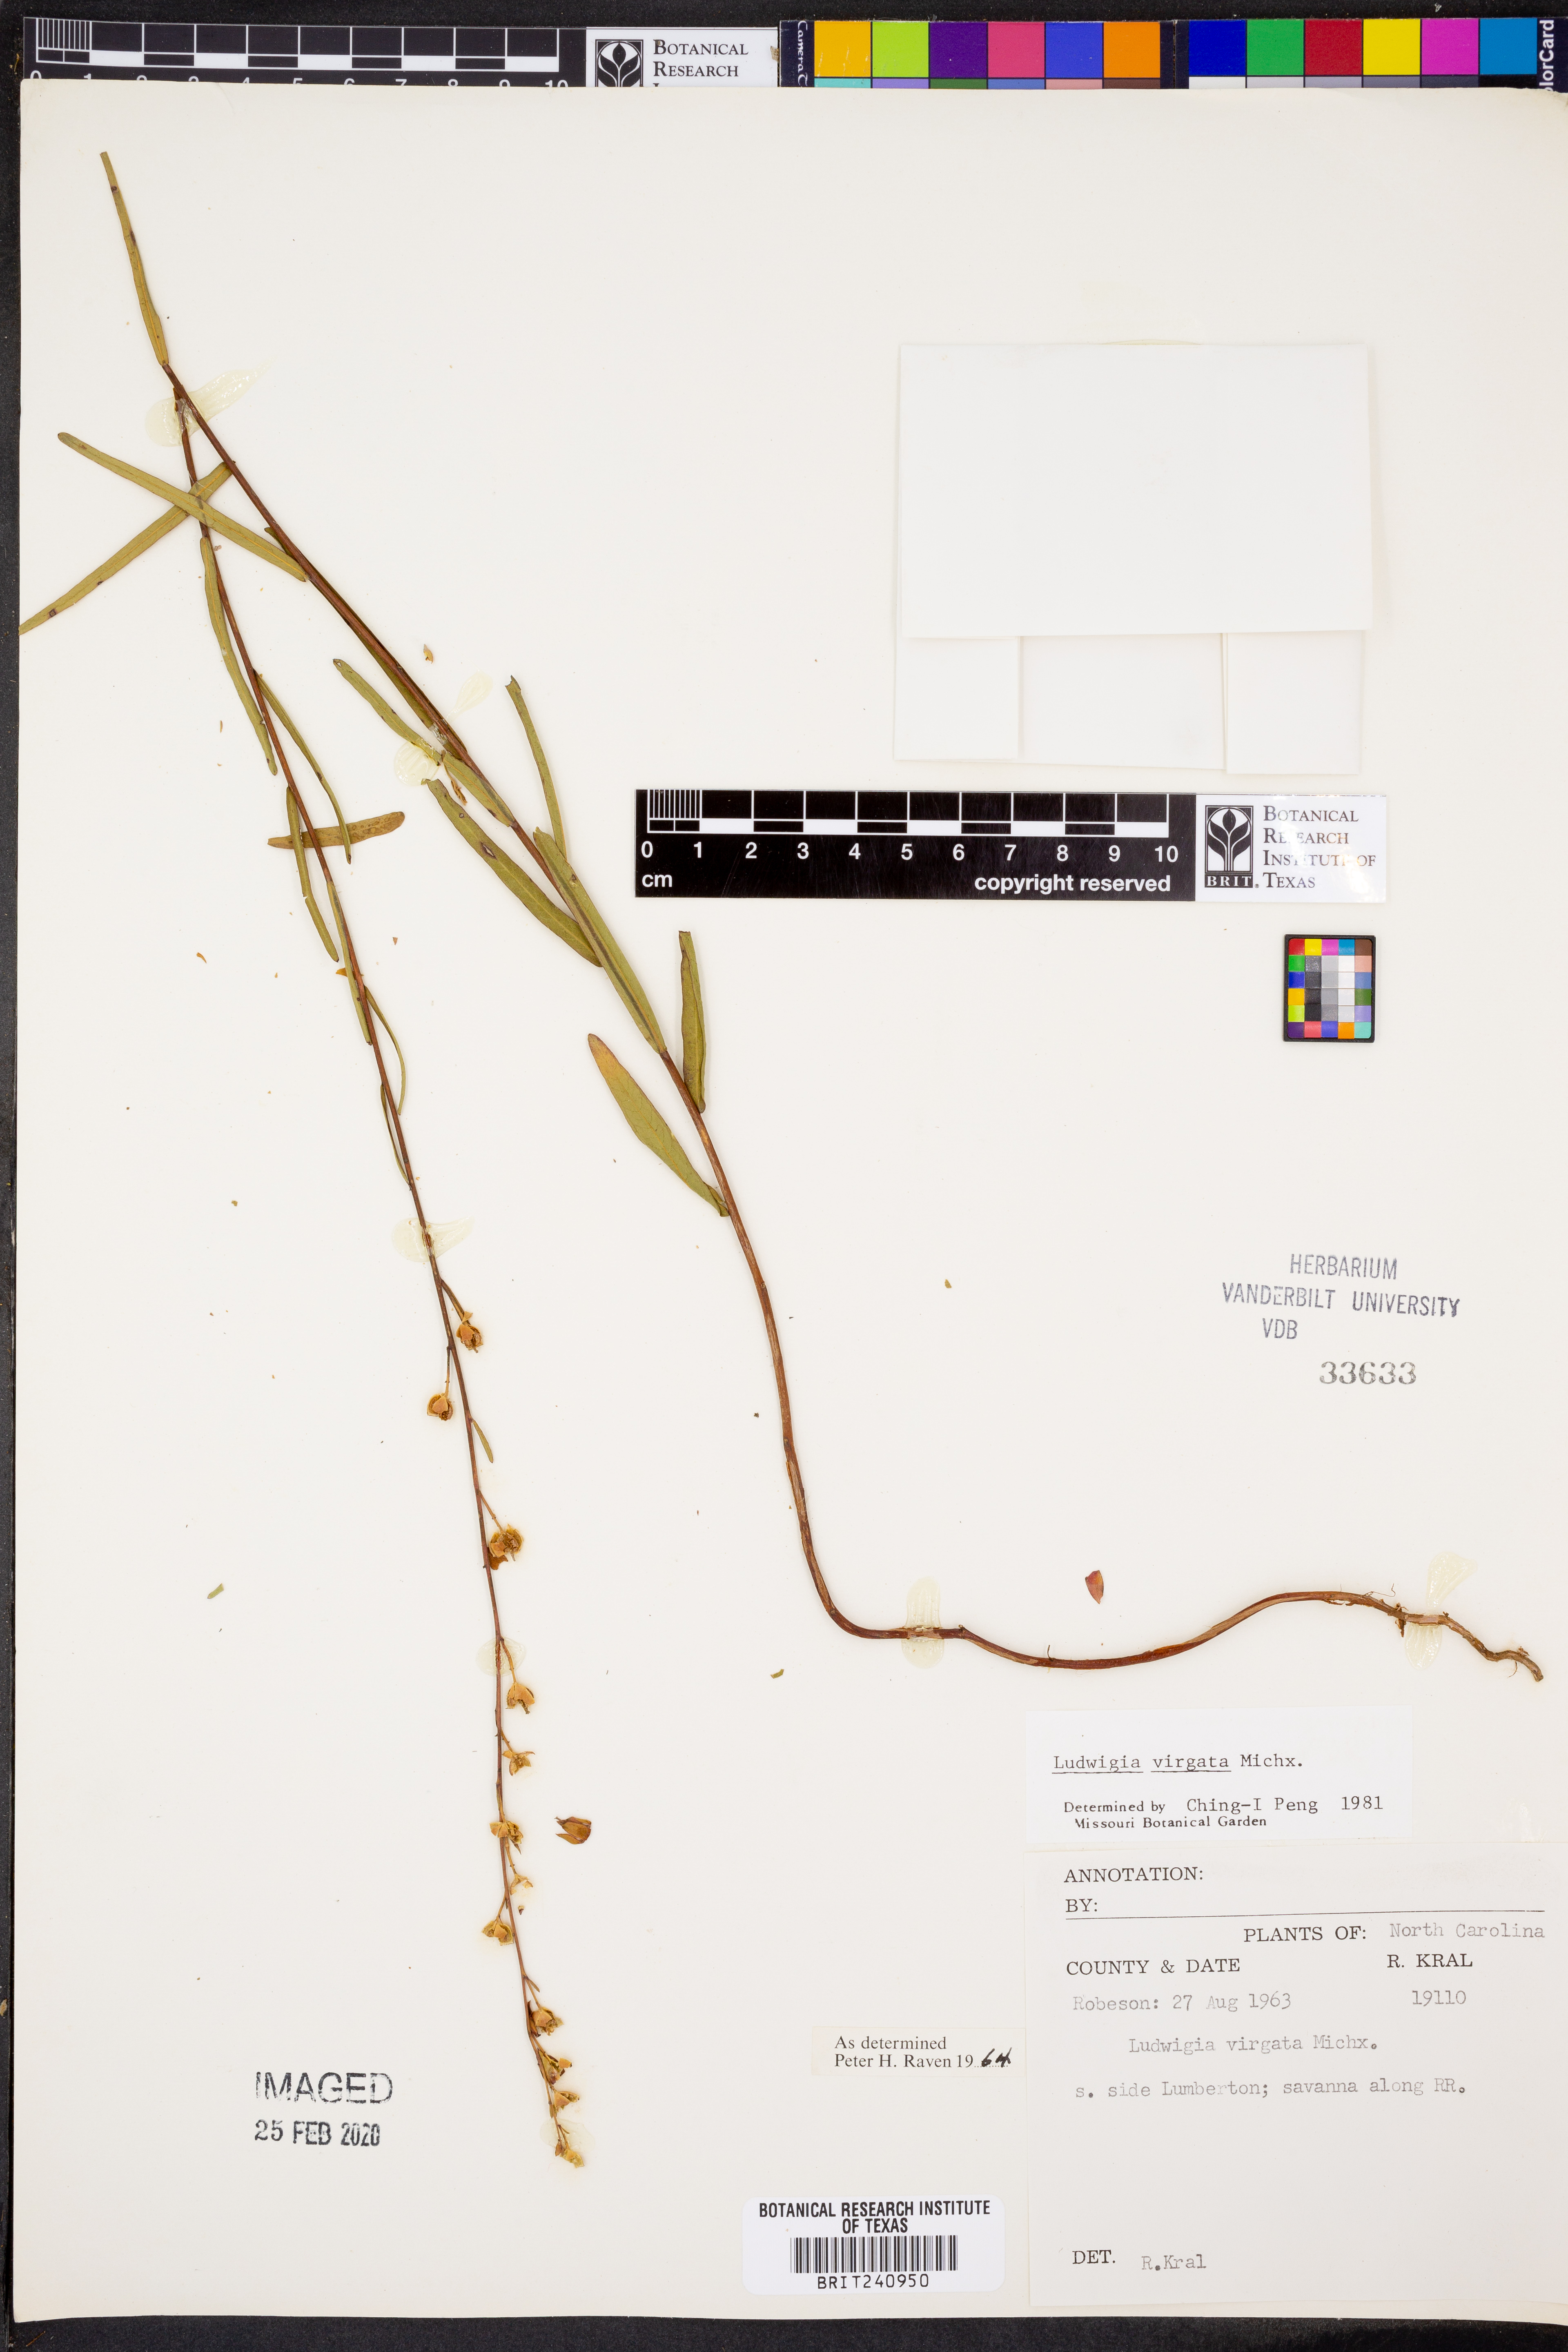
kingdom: Plantae
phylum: Tracheophyta
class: Magnoliopsida
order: Myrtales
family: Onagraceae
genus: Ludwigia
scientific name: Ludwigia virgata
